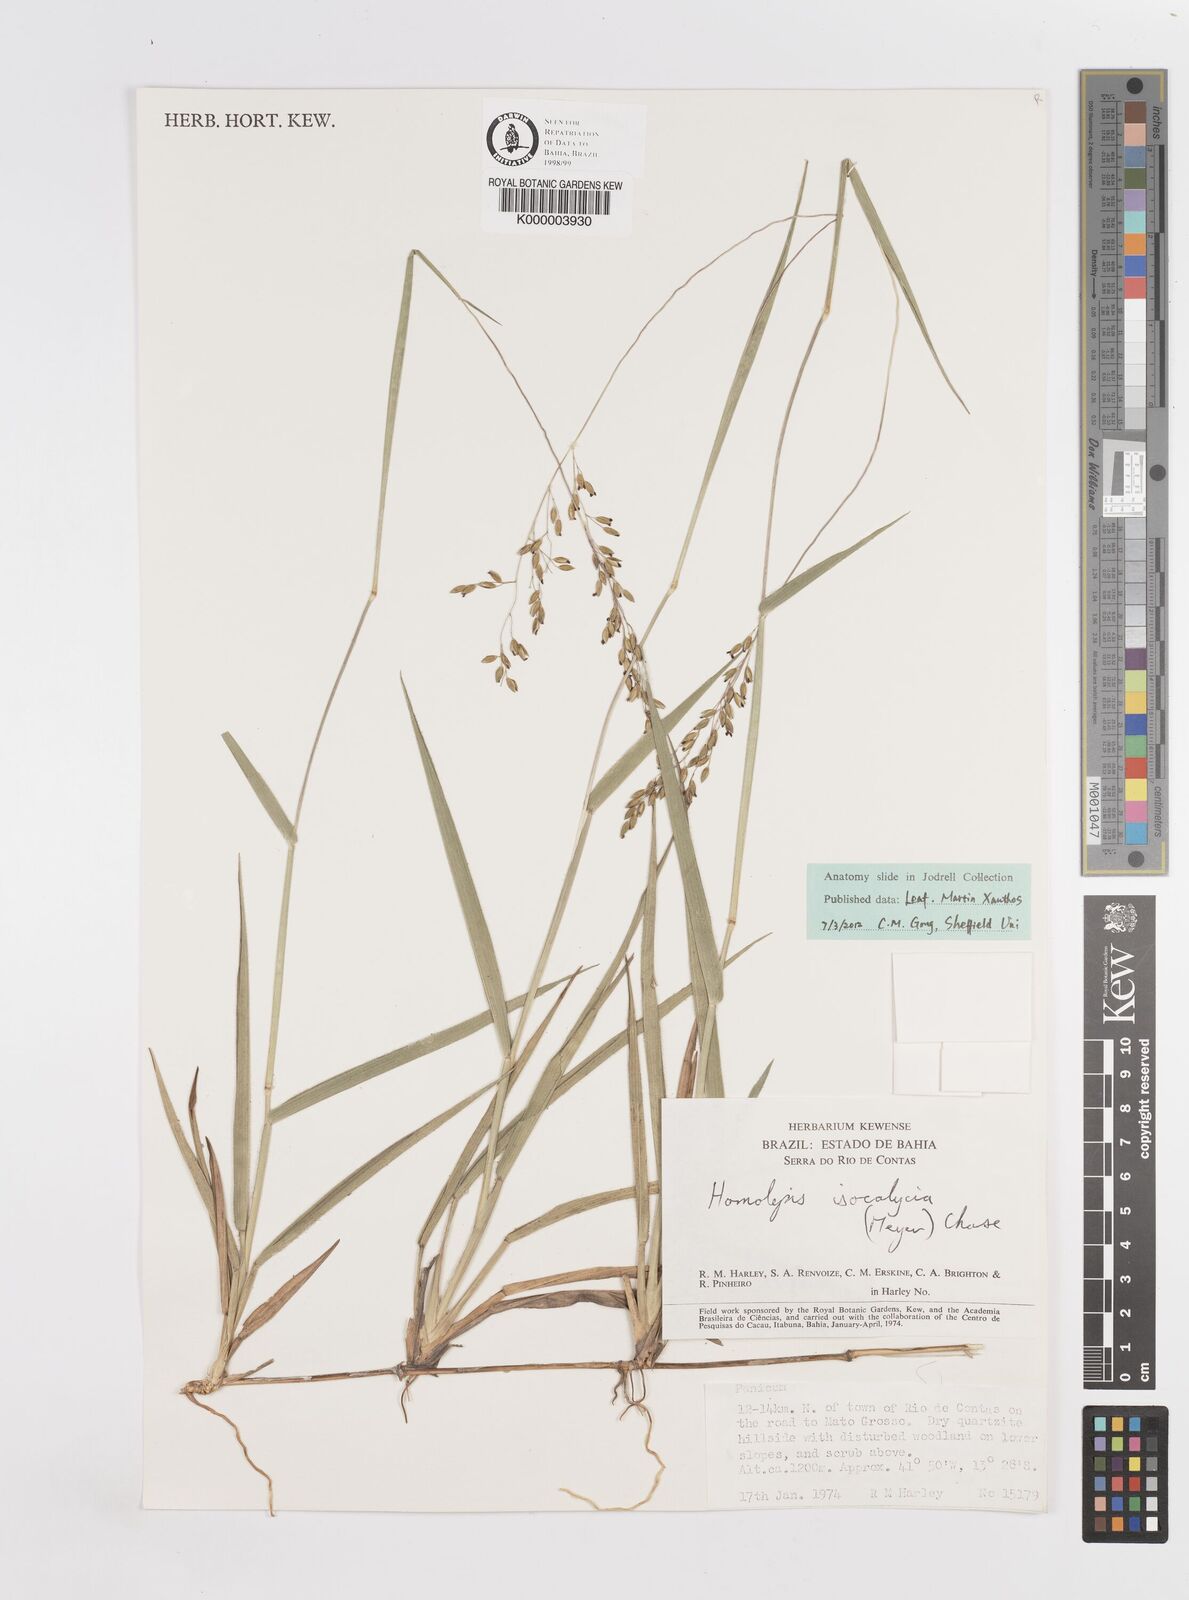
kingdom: Plantae
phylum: Tracheophyta
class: Liliopsida
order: Poales
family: Poaceae
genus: Homolepis
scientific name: Homolepis
